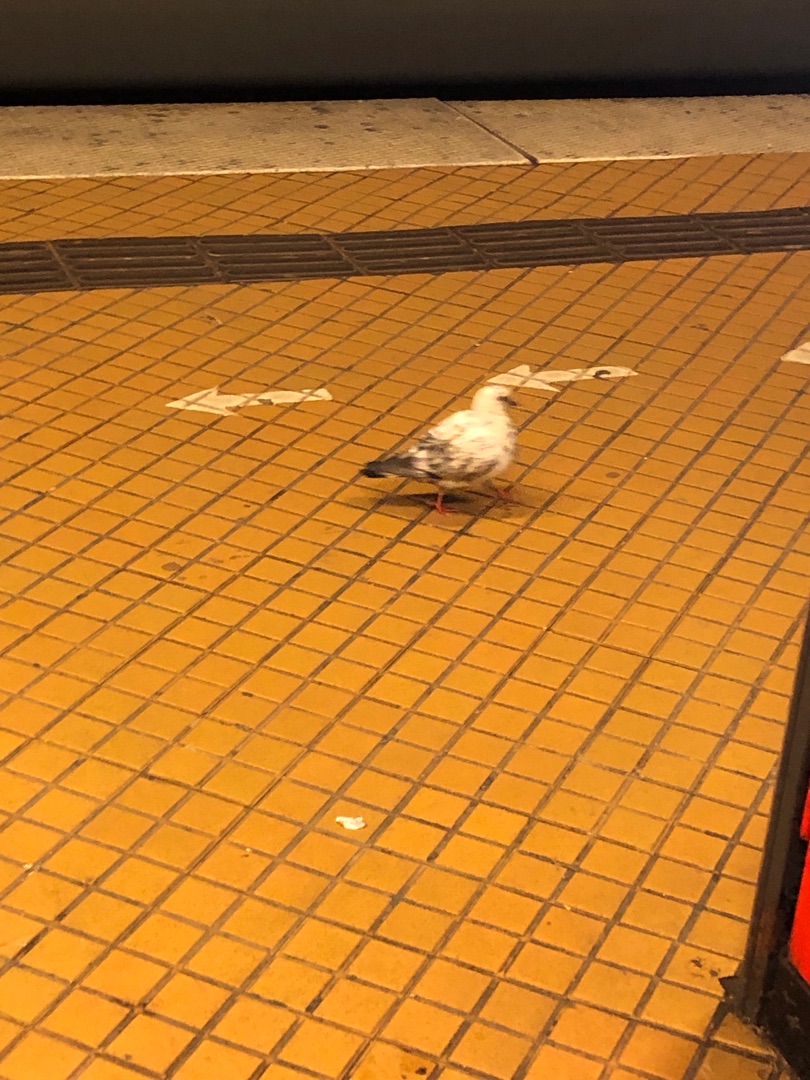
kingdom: Animalia
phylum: Chordata
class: Aves
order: Columbiformes
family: Columbidae
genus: Columba
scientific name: Columba livia
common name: Tamdue
